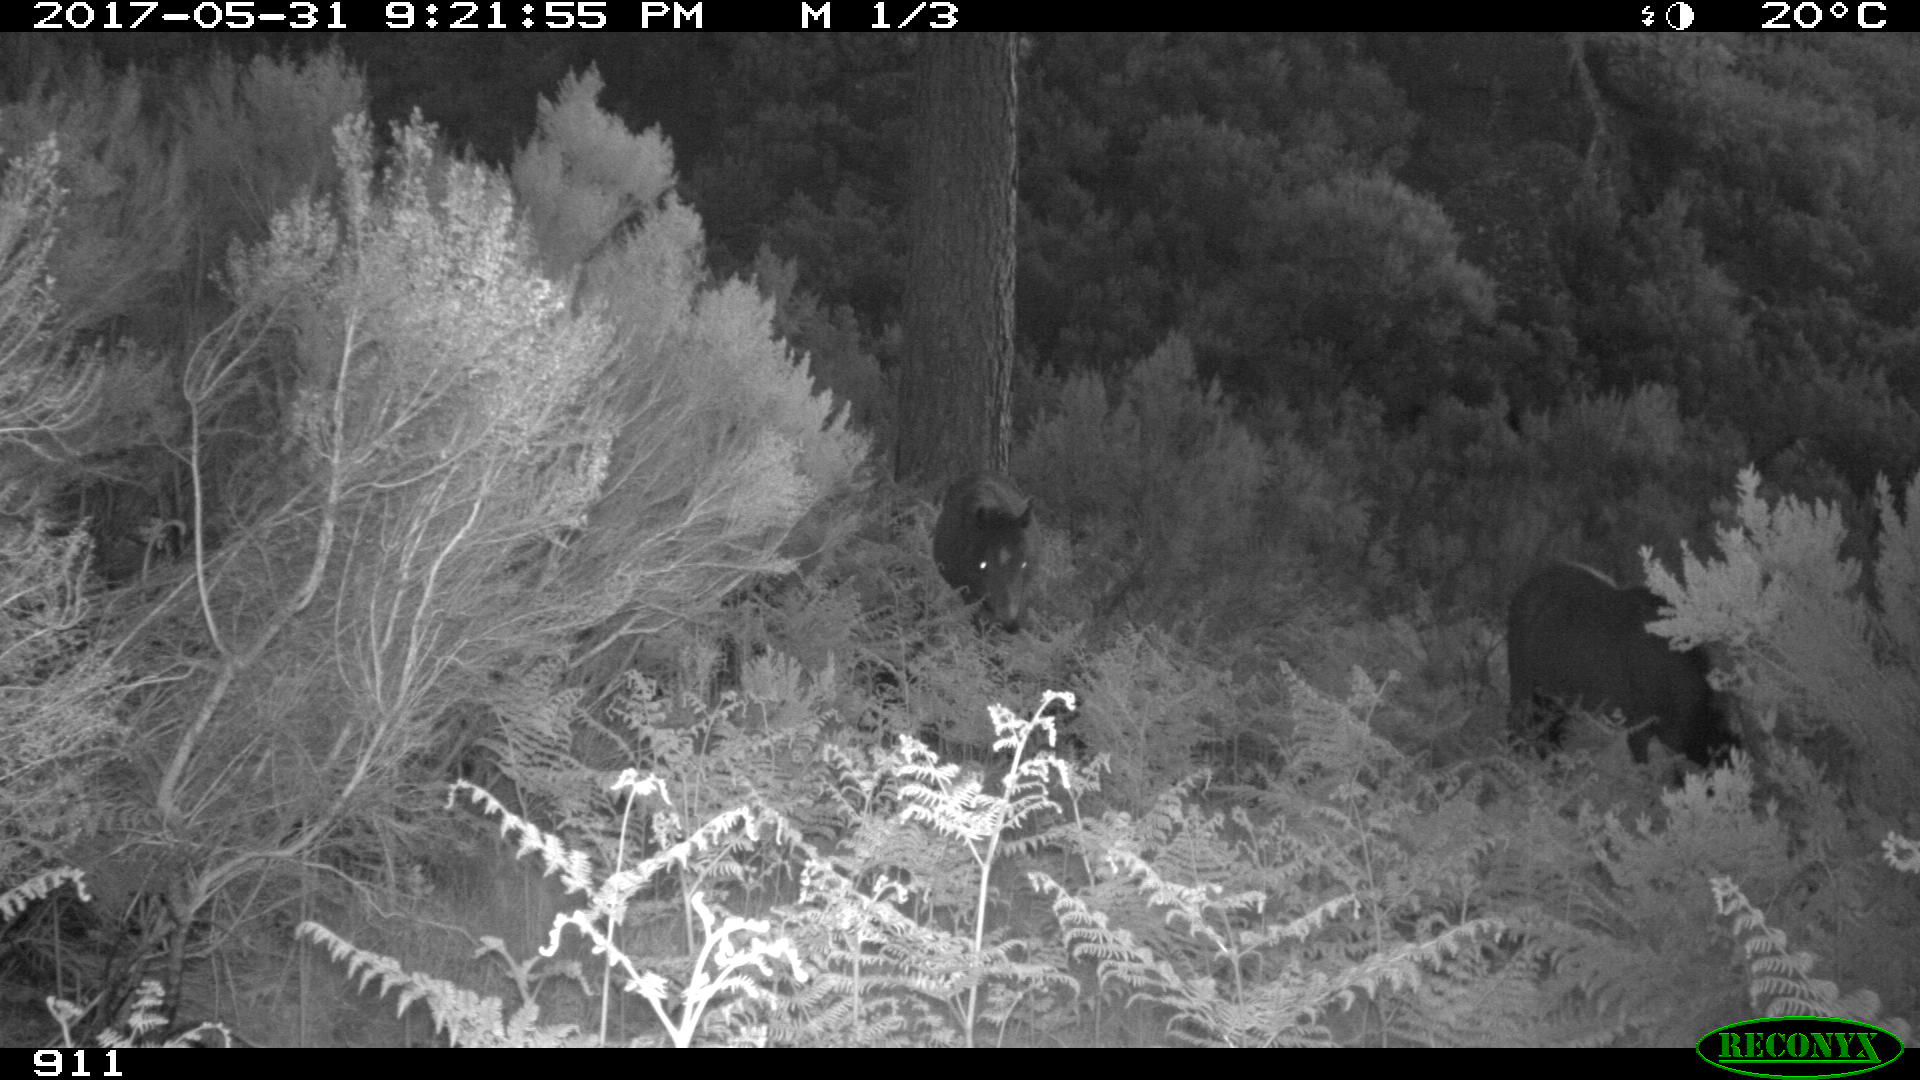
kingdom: Animalia
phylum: Chordata
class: Mammalia
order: Perissodactyla
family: Equidae
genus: Equus
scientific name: Equus caballus
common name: Horse
